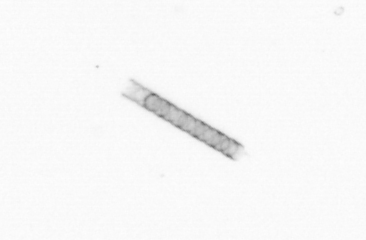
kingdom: Chromista
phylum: Ochrophyta
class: Bacillariophyceae
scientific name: Bacillariophyceae
